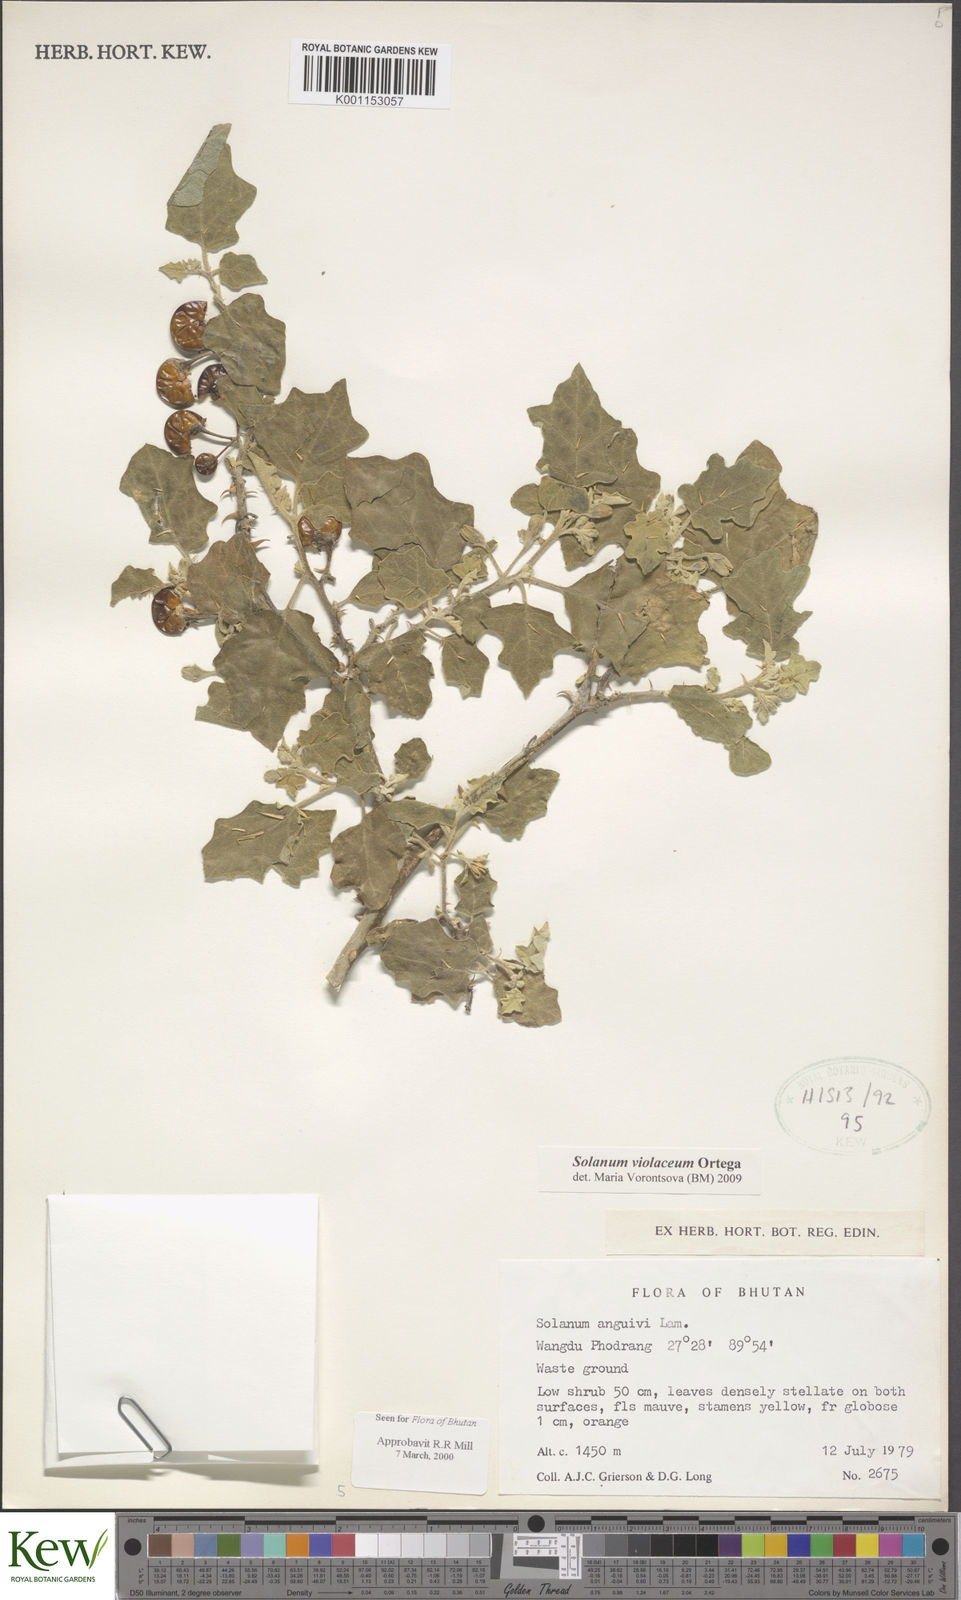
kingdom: Plantae
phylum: Tracheophyta
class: Magnoliopsida
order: Solanales
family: Solanaceae
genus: Solanum
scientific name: Solanum violaceum
